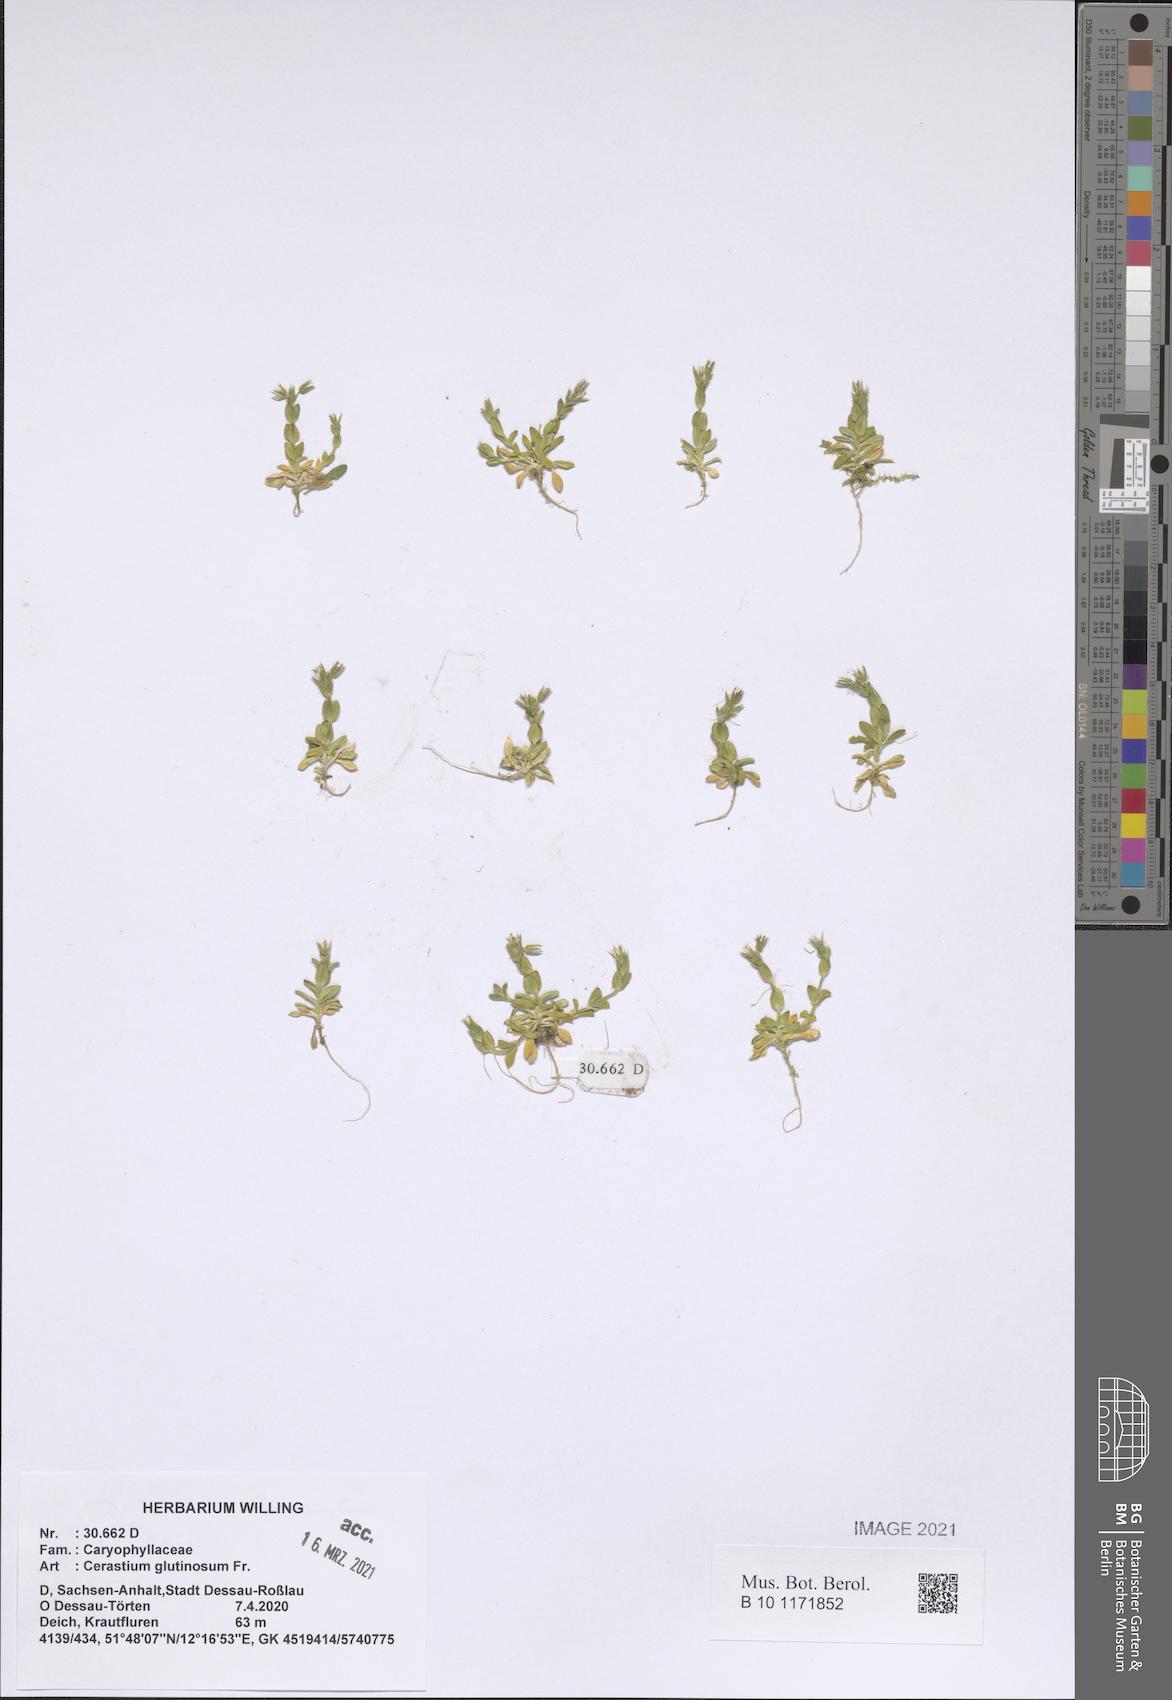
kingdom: Plantae
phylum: Tracheophyta
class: Magnoliopsida
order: Caryophyllales
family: Caryophyllaceae
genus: Cerastium
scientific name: Cerastium glutinosum
